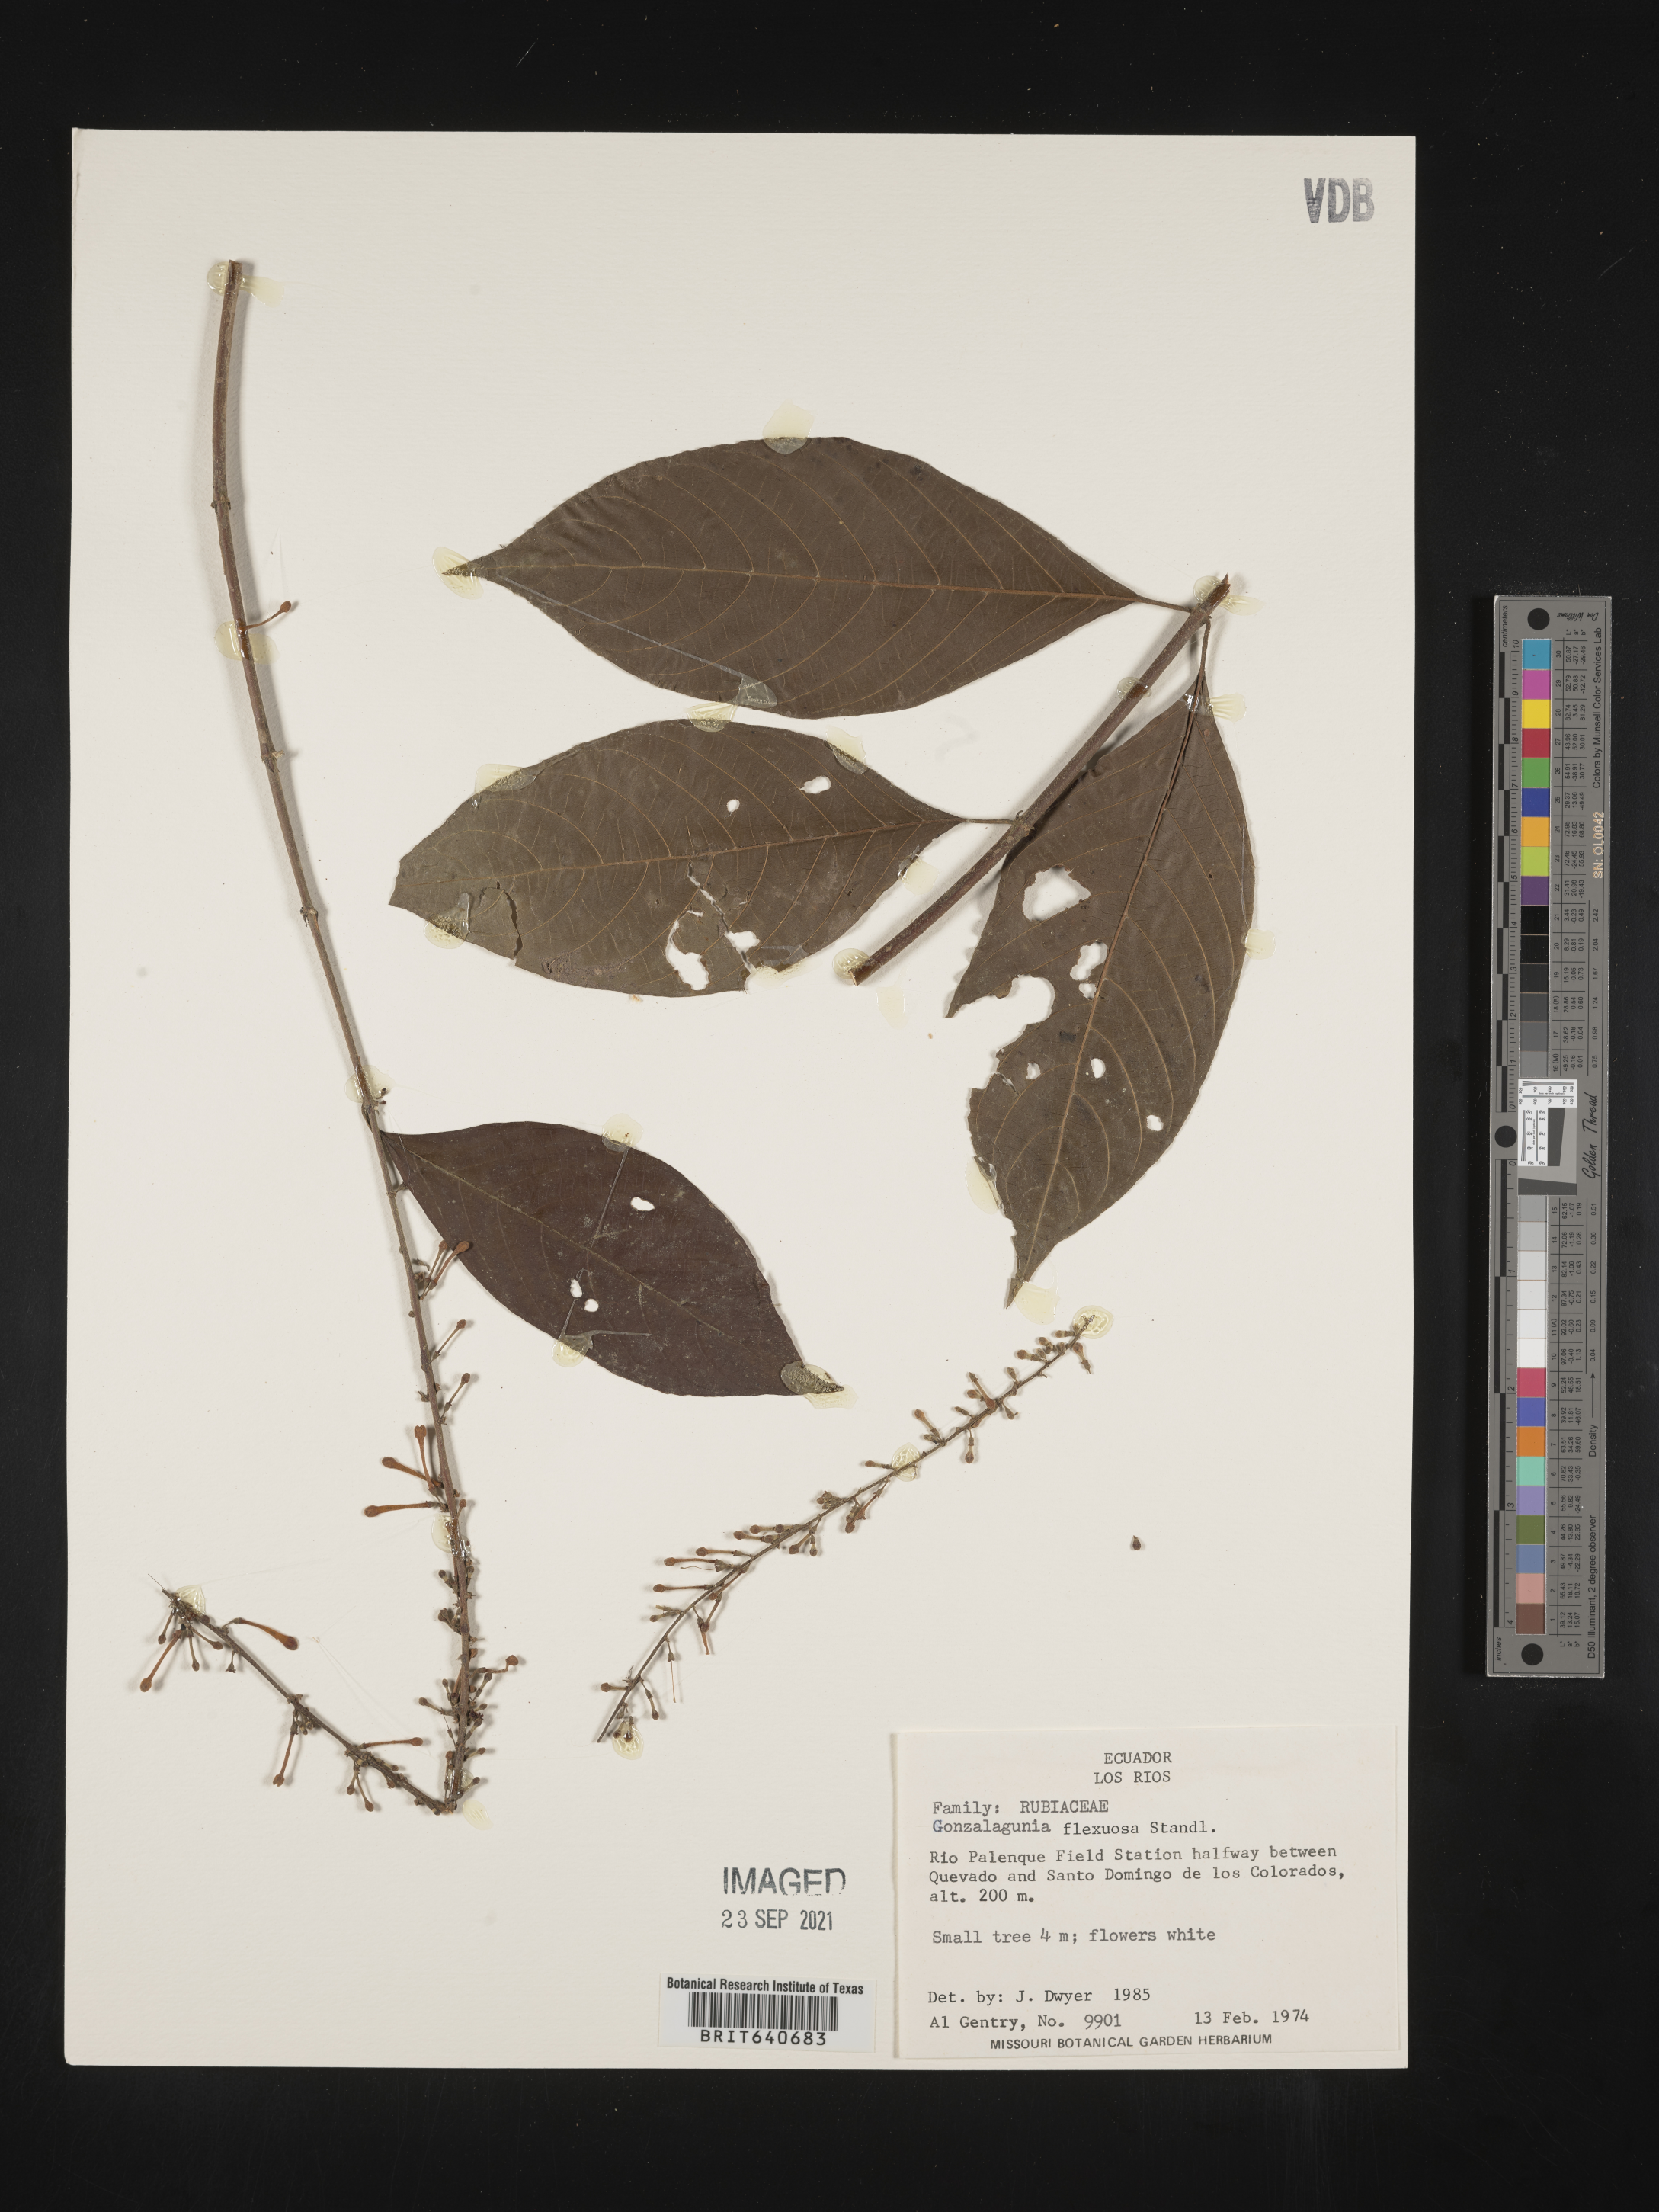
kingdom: Plantae
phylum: Tracheophyta
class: Magnoliopsida
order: Gentianales
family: Rubiaceae
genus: Gonzalagunia
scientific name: Gonzalagunia
